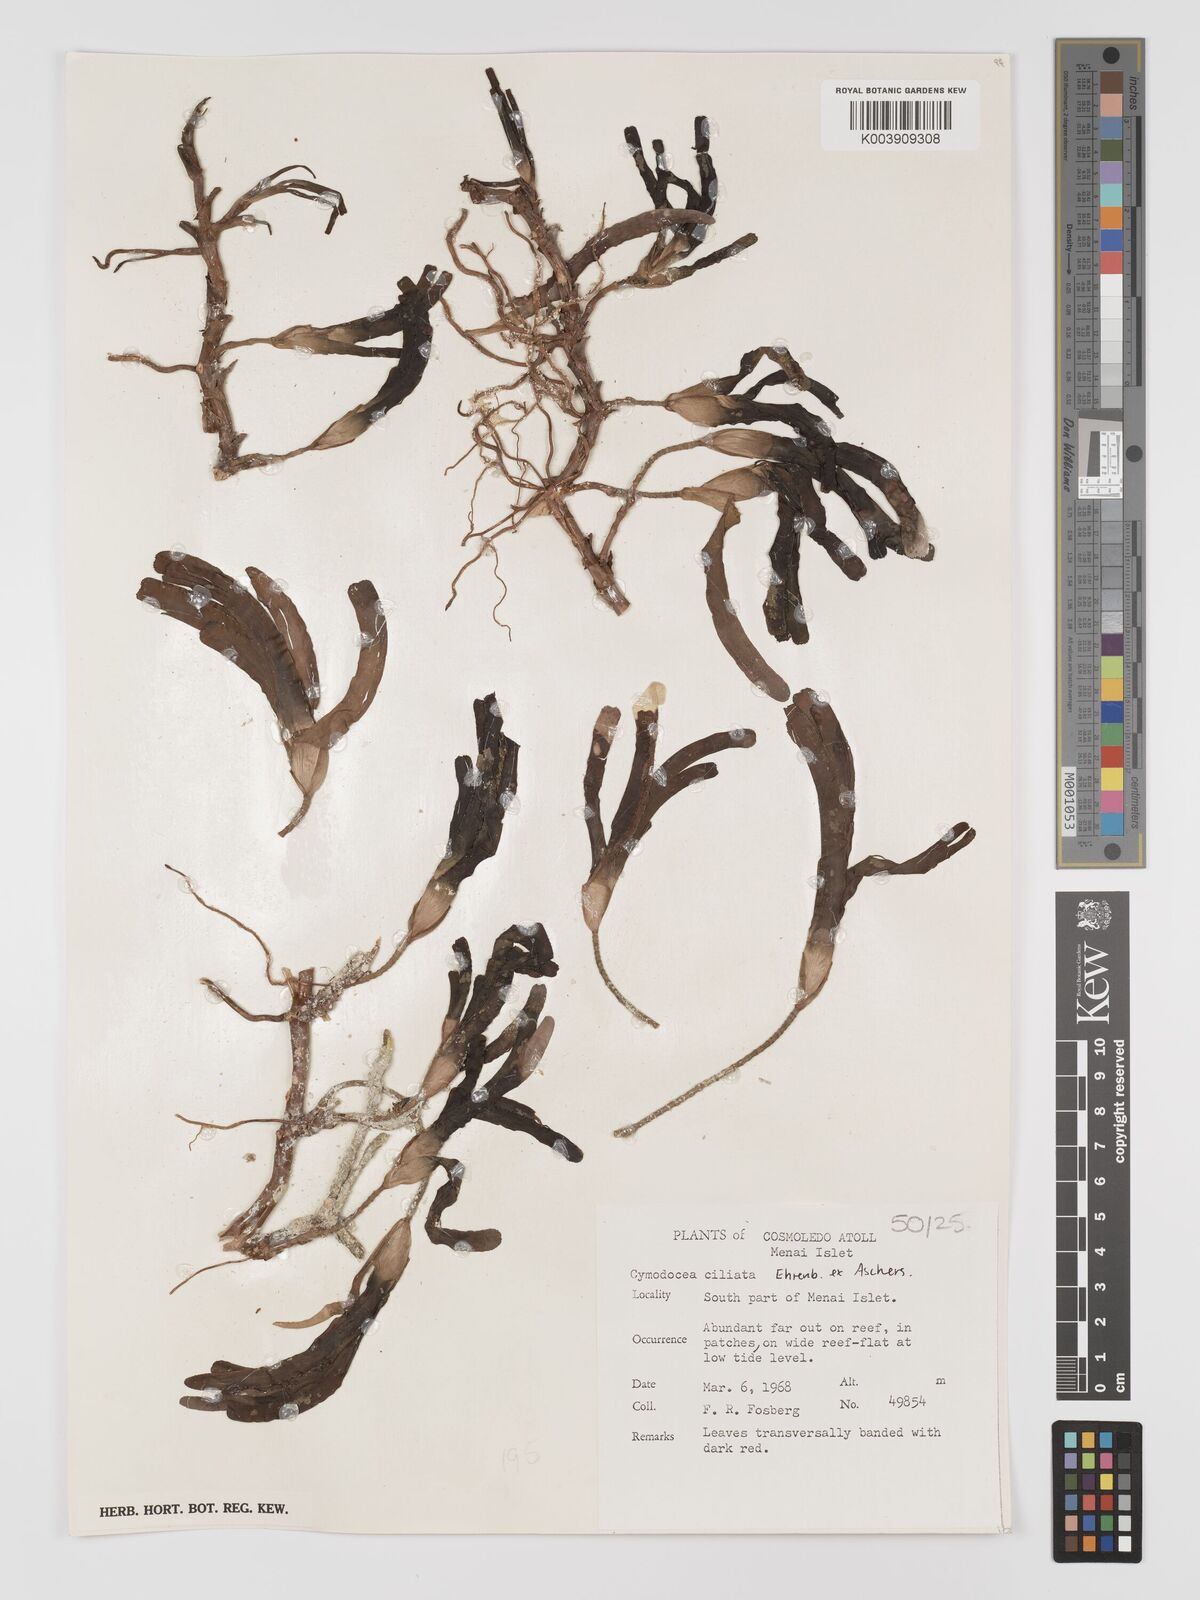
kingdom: Plantae
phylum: Tracheophyta
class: Liliopsida
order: Alismatales
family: Cymodoceaceae
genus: Thalassodendron
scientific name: Thalassodendron ciliatum
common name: Species code: tc
